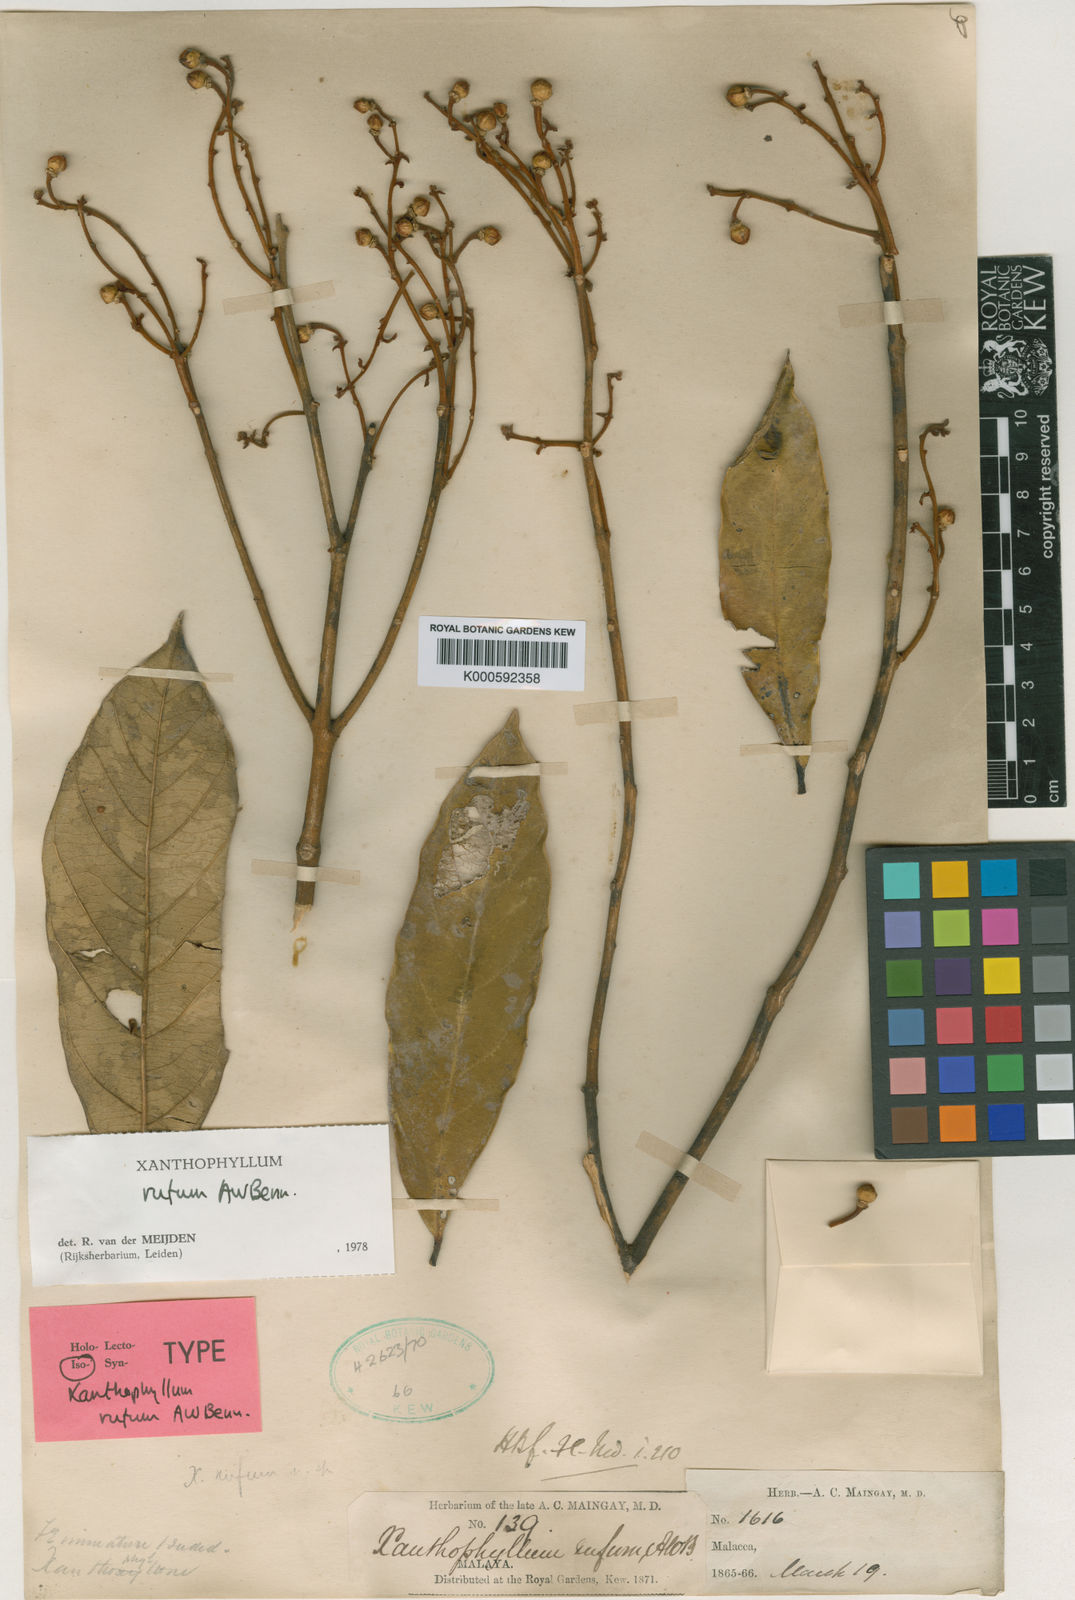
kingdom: Plantae
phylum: Tracheophyta
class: Magnoliopsida
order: Fabales
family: Polygalaceae
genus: Xanthophyllum
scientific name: Xanthophyllum rufum
